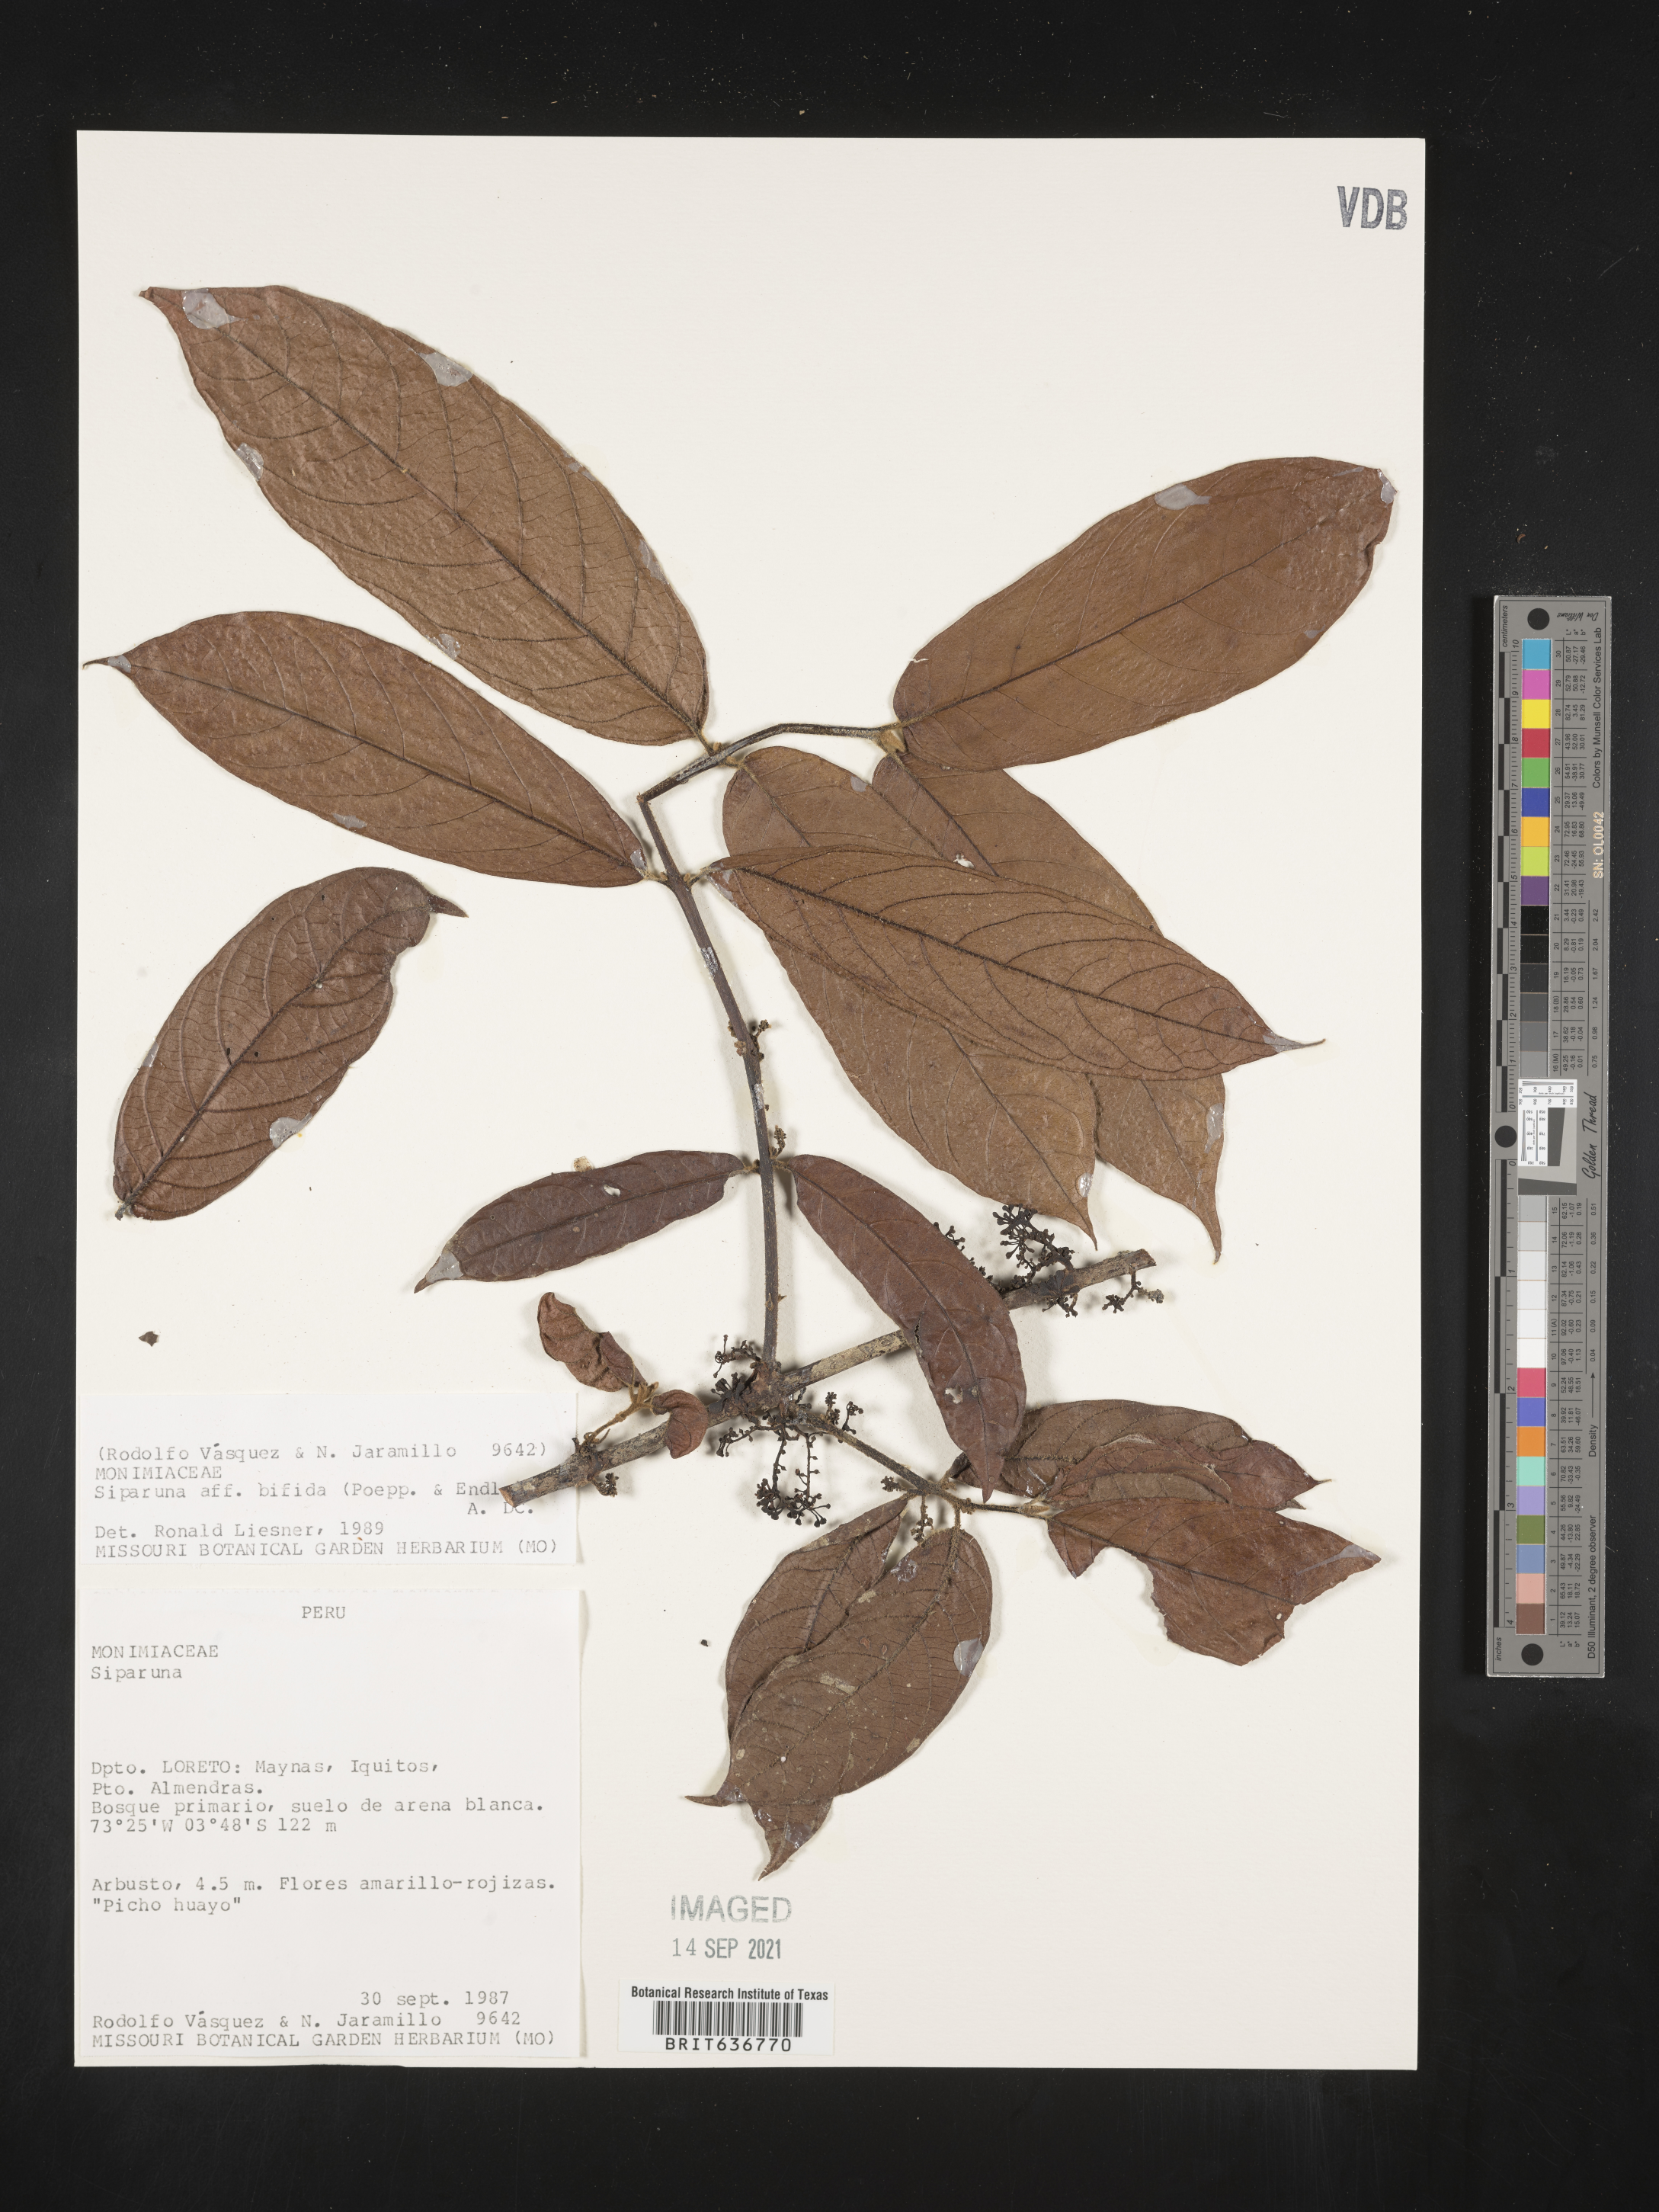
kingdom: Plantae
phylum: Tracheophyta
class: Magnoliopsida
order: Laurales
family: Siparunaceae
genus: Siparuna
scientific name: Siparuna
